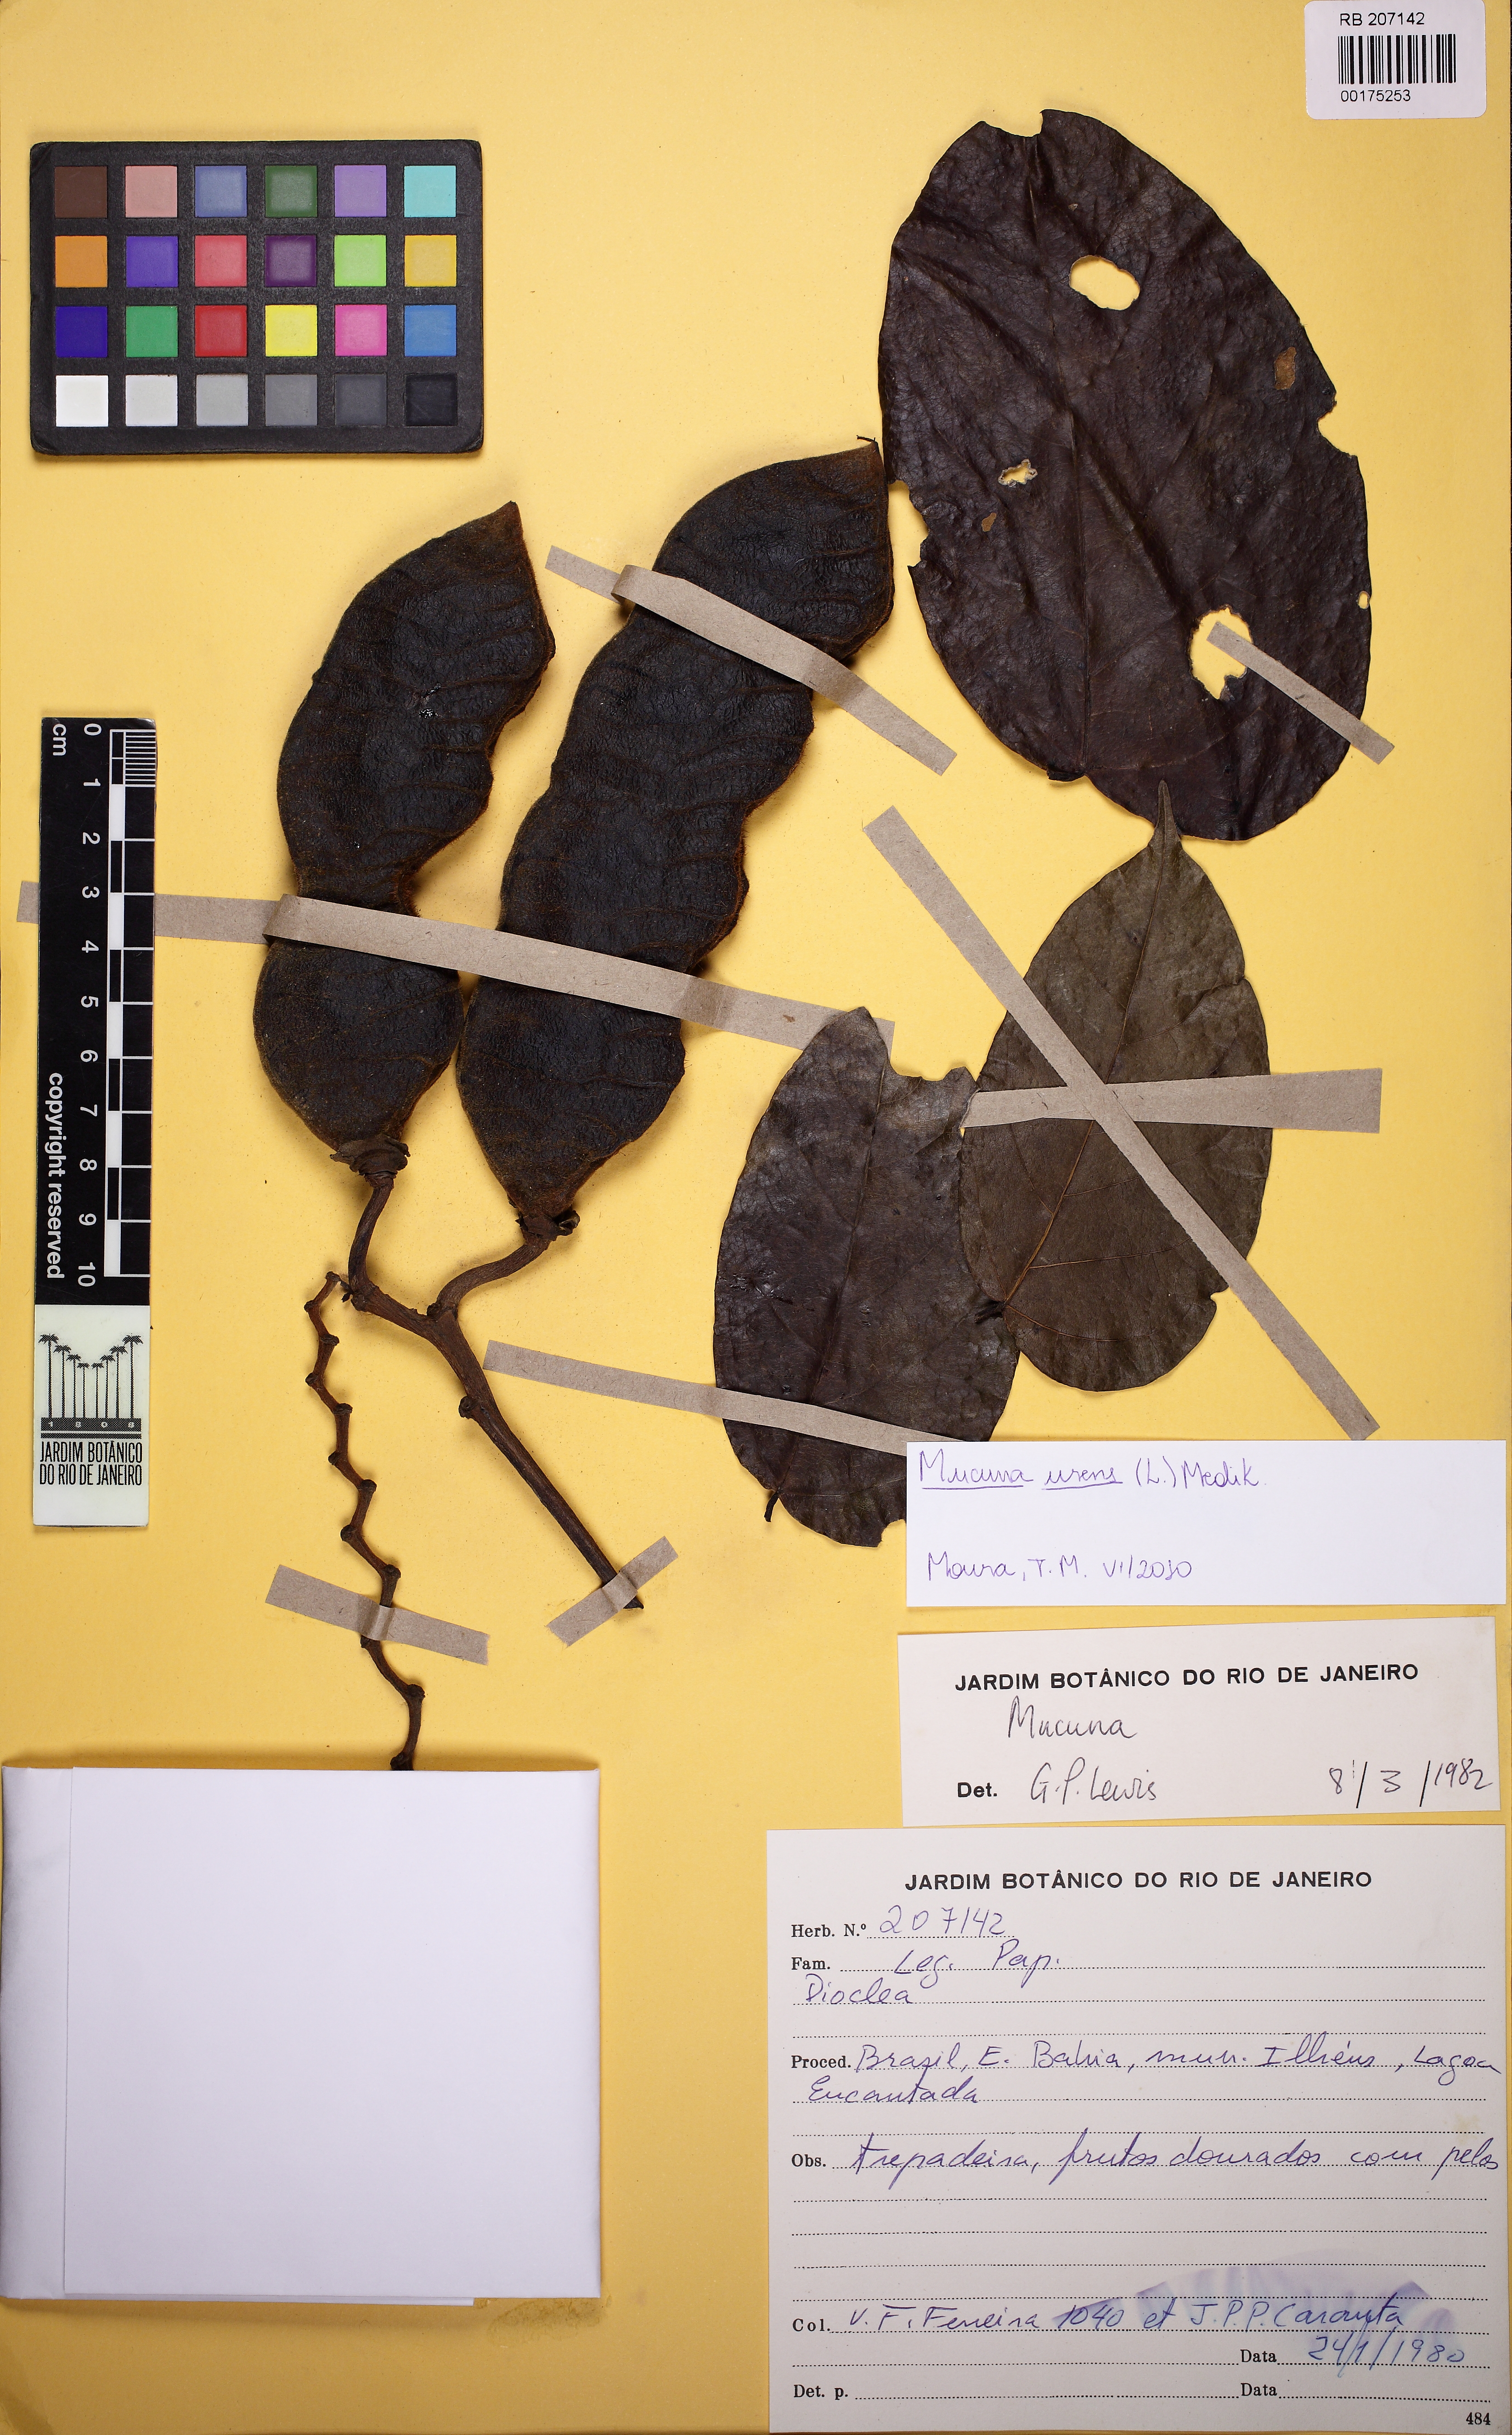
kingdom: Plantae
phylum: Tracheophyta
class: Magnoliopsida
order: Fabales
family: Fabaceae
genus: Mucuna
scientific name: Mucuna urens
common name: Red hamburger bean
